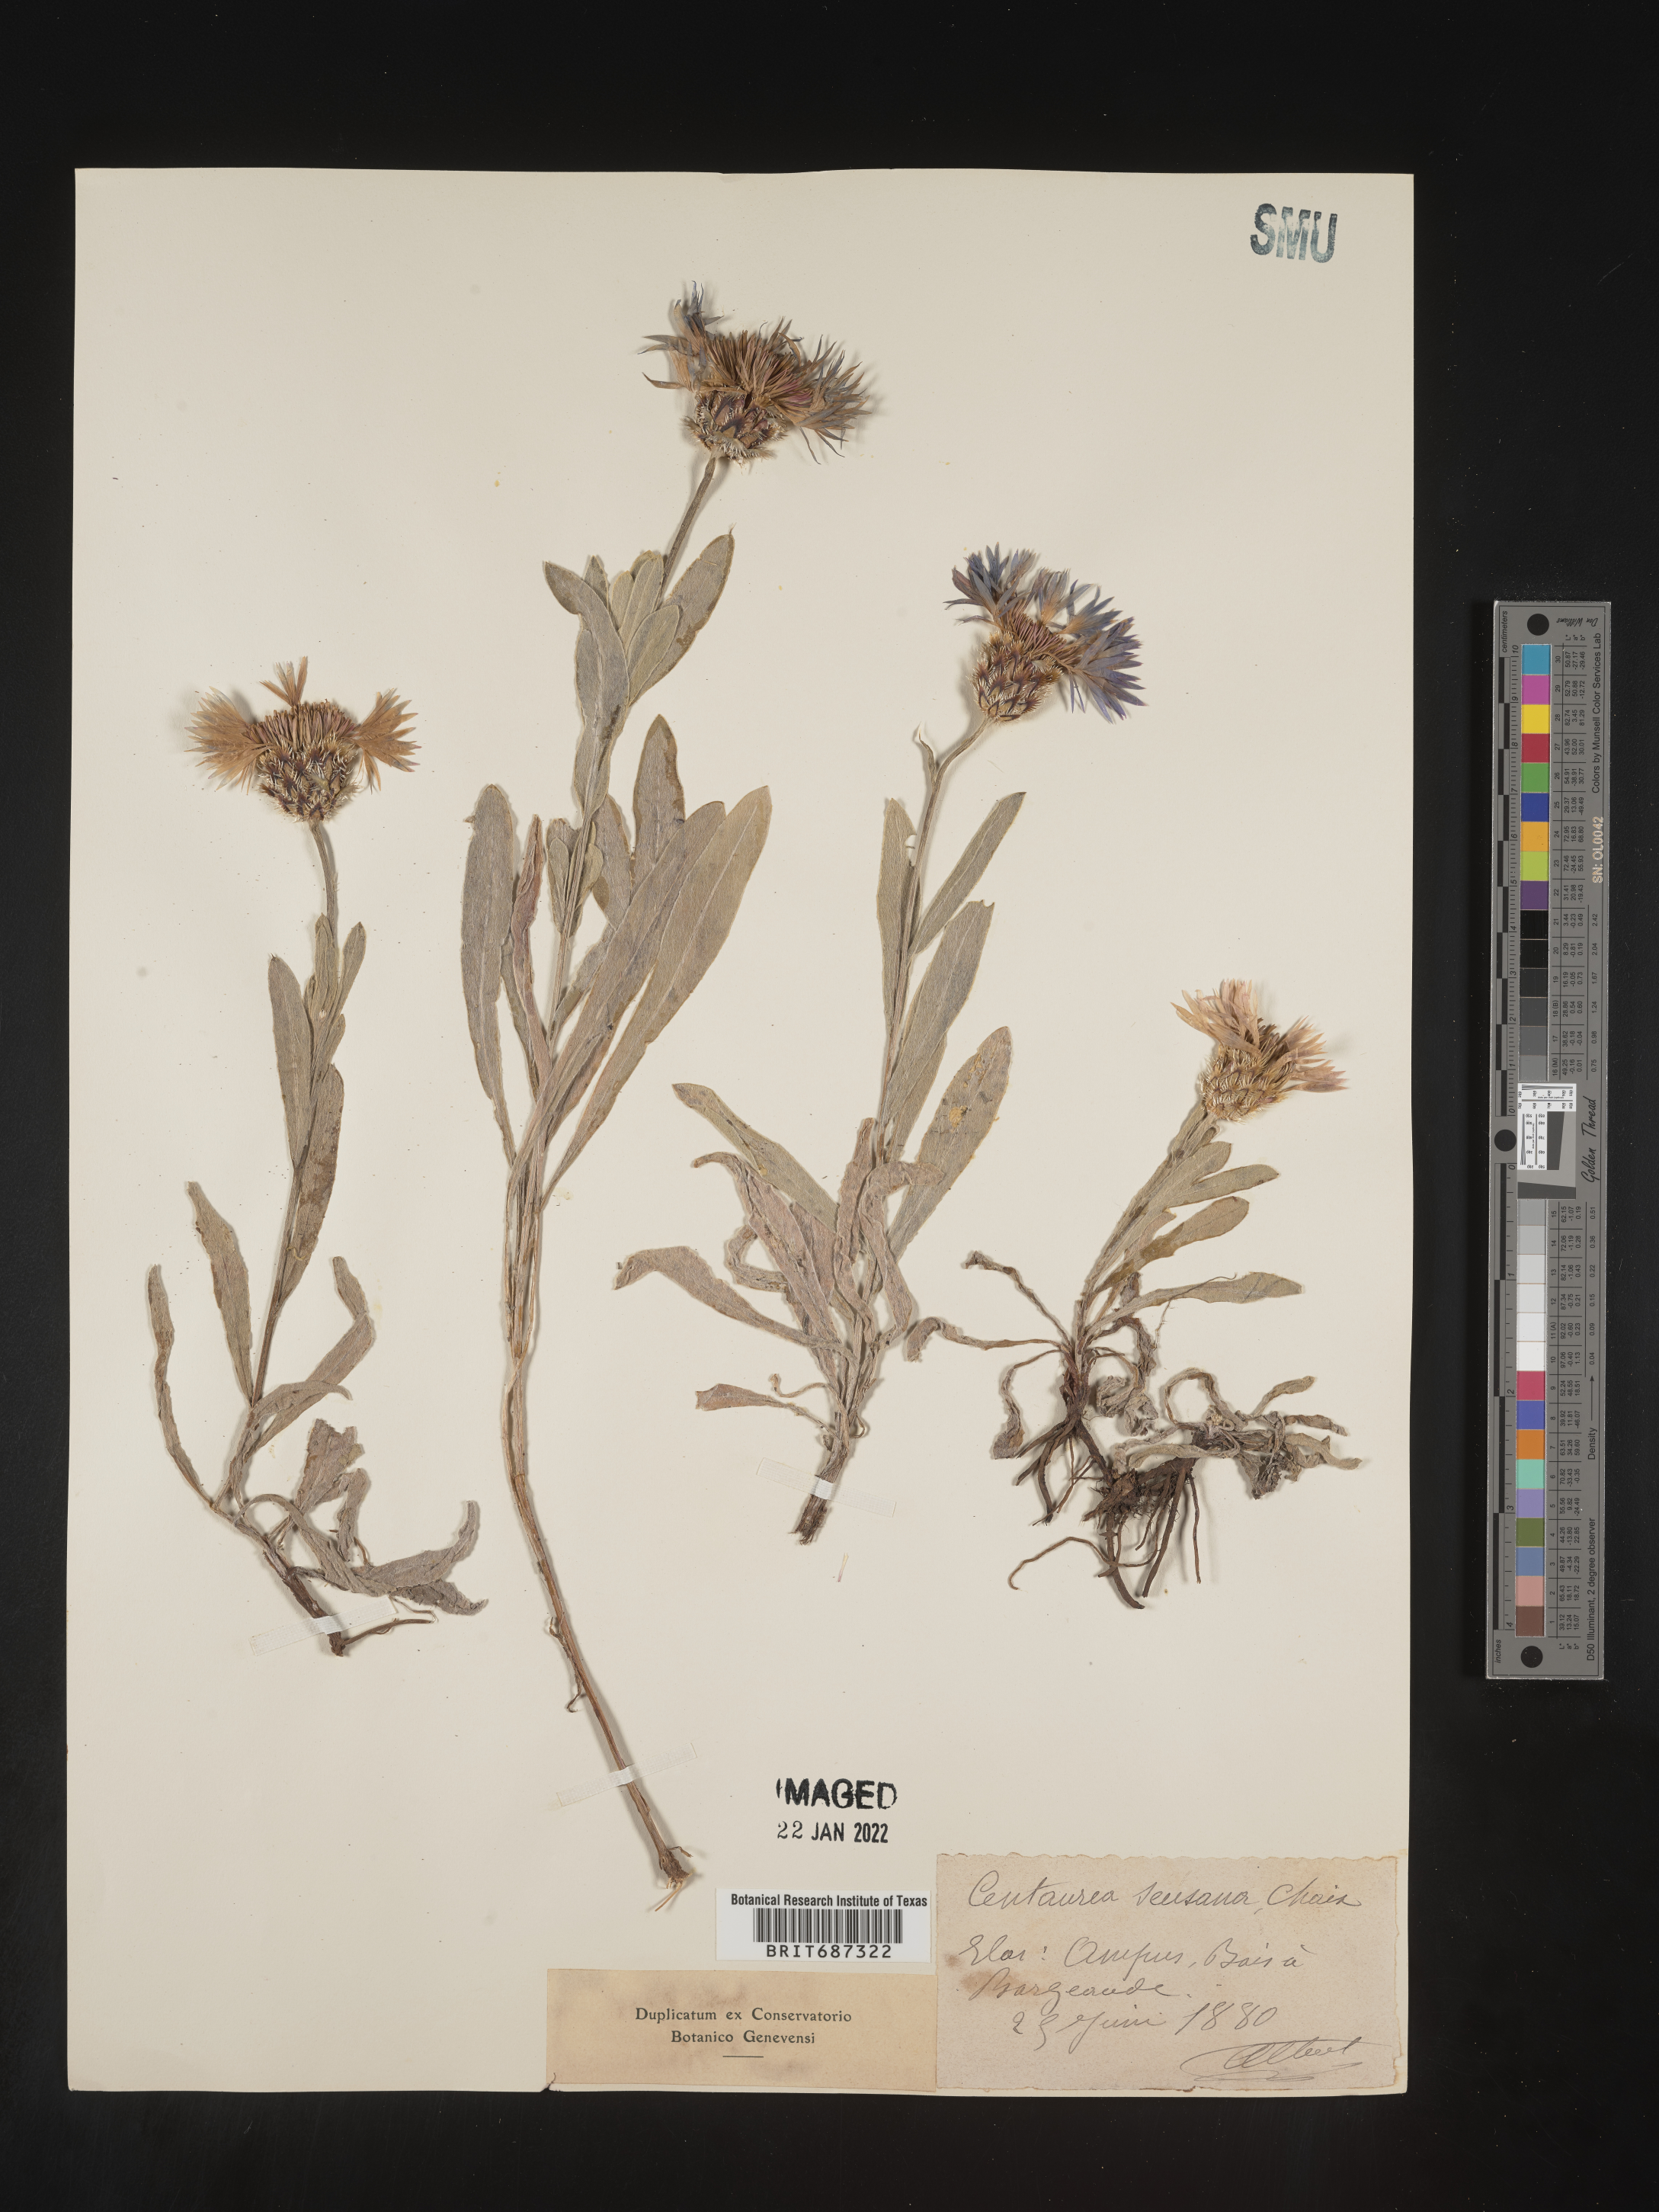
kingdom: Plantae
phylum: Tracheophyta
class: Magnoliopsida
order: Asterales
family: Asteraceae
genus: Centaurea
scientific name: Centaurea
